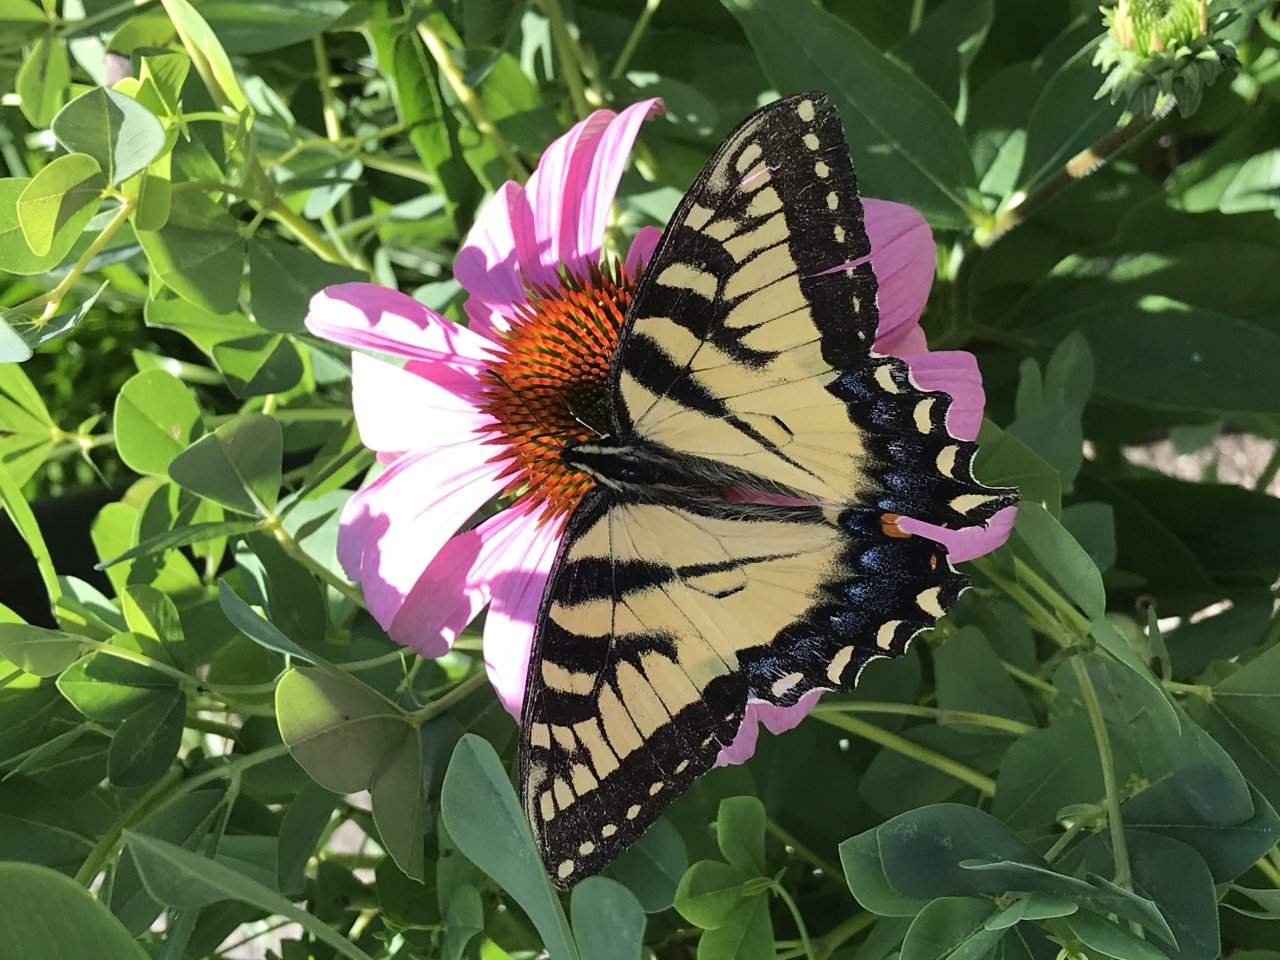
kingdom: Animalia
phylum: Arthropoda
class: Insecta
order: Lepidoptera
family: Papilionidae
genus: Pterourus
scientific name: Pterourus
